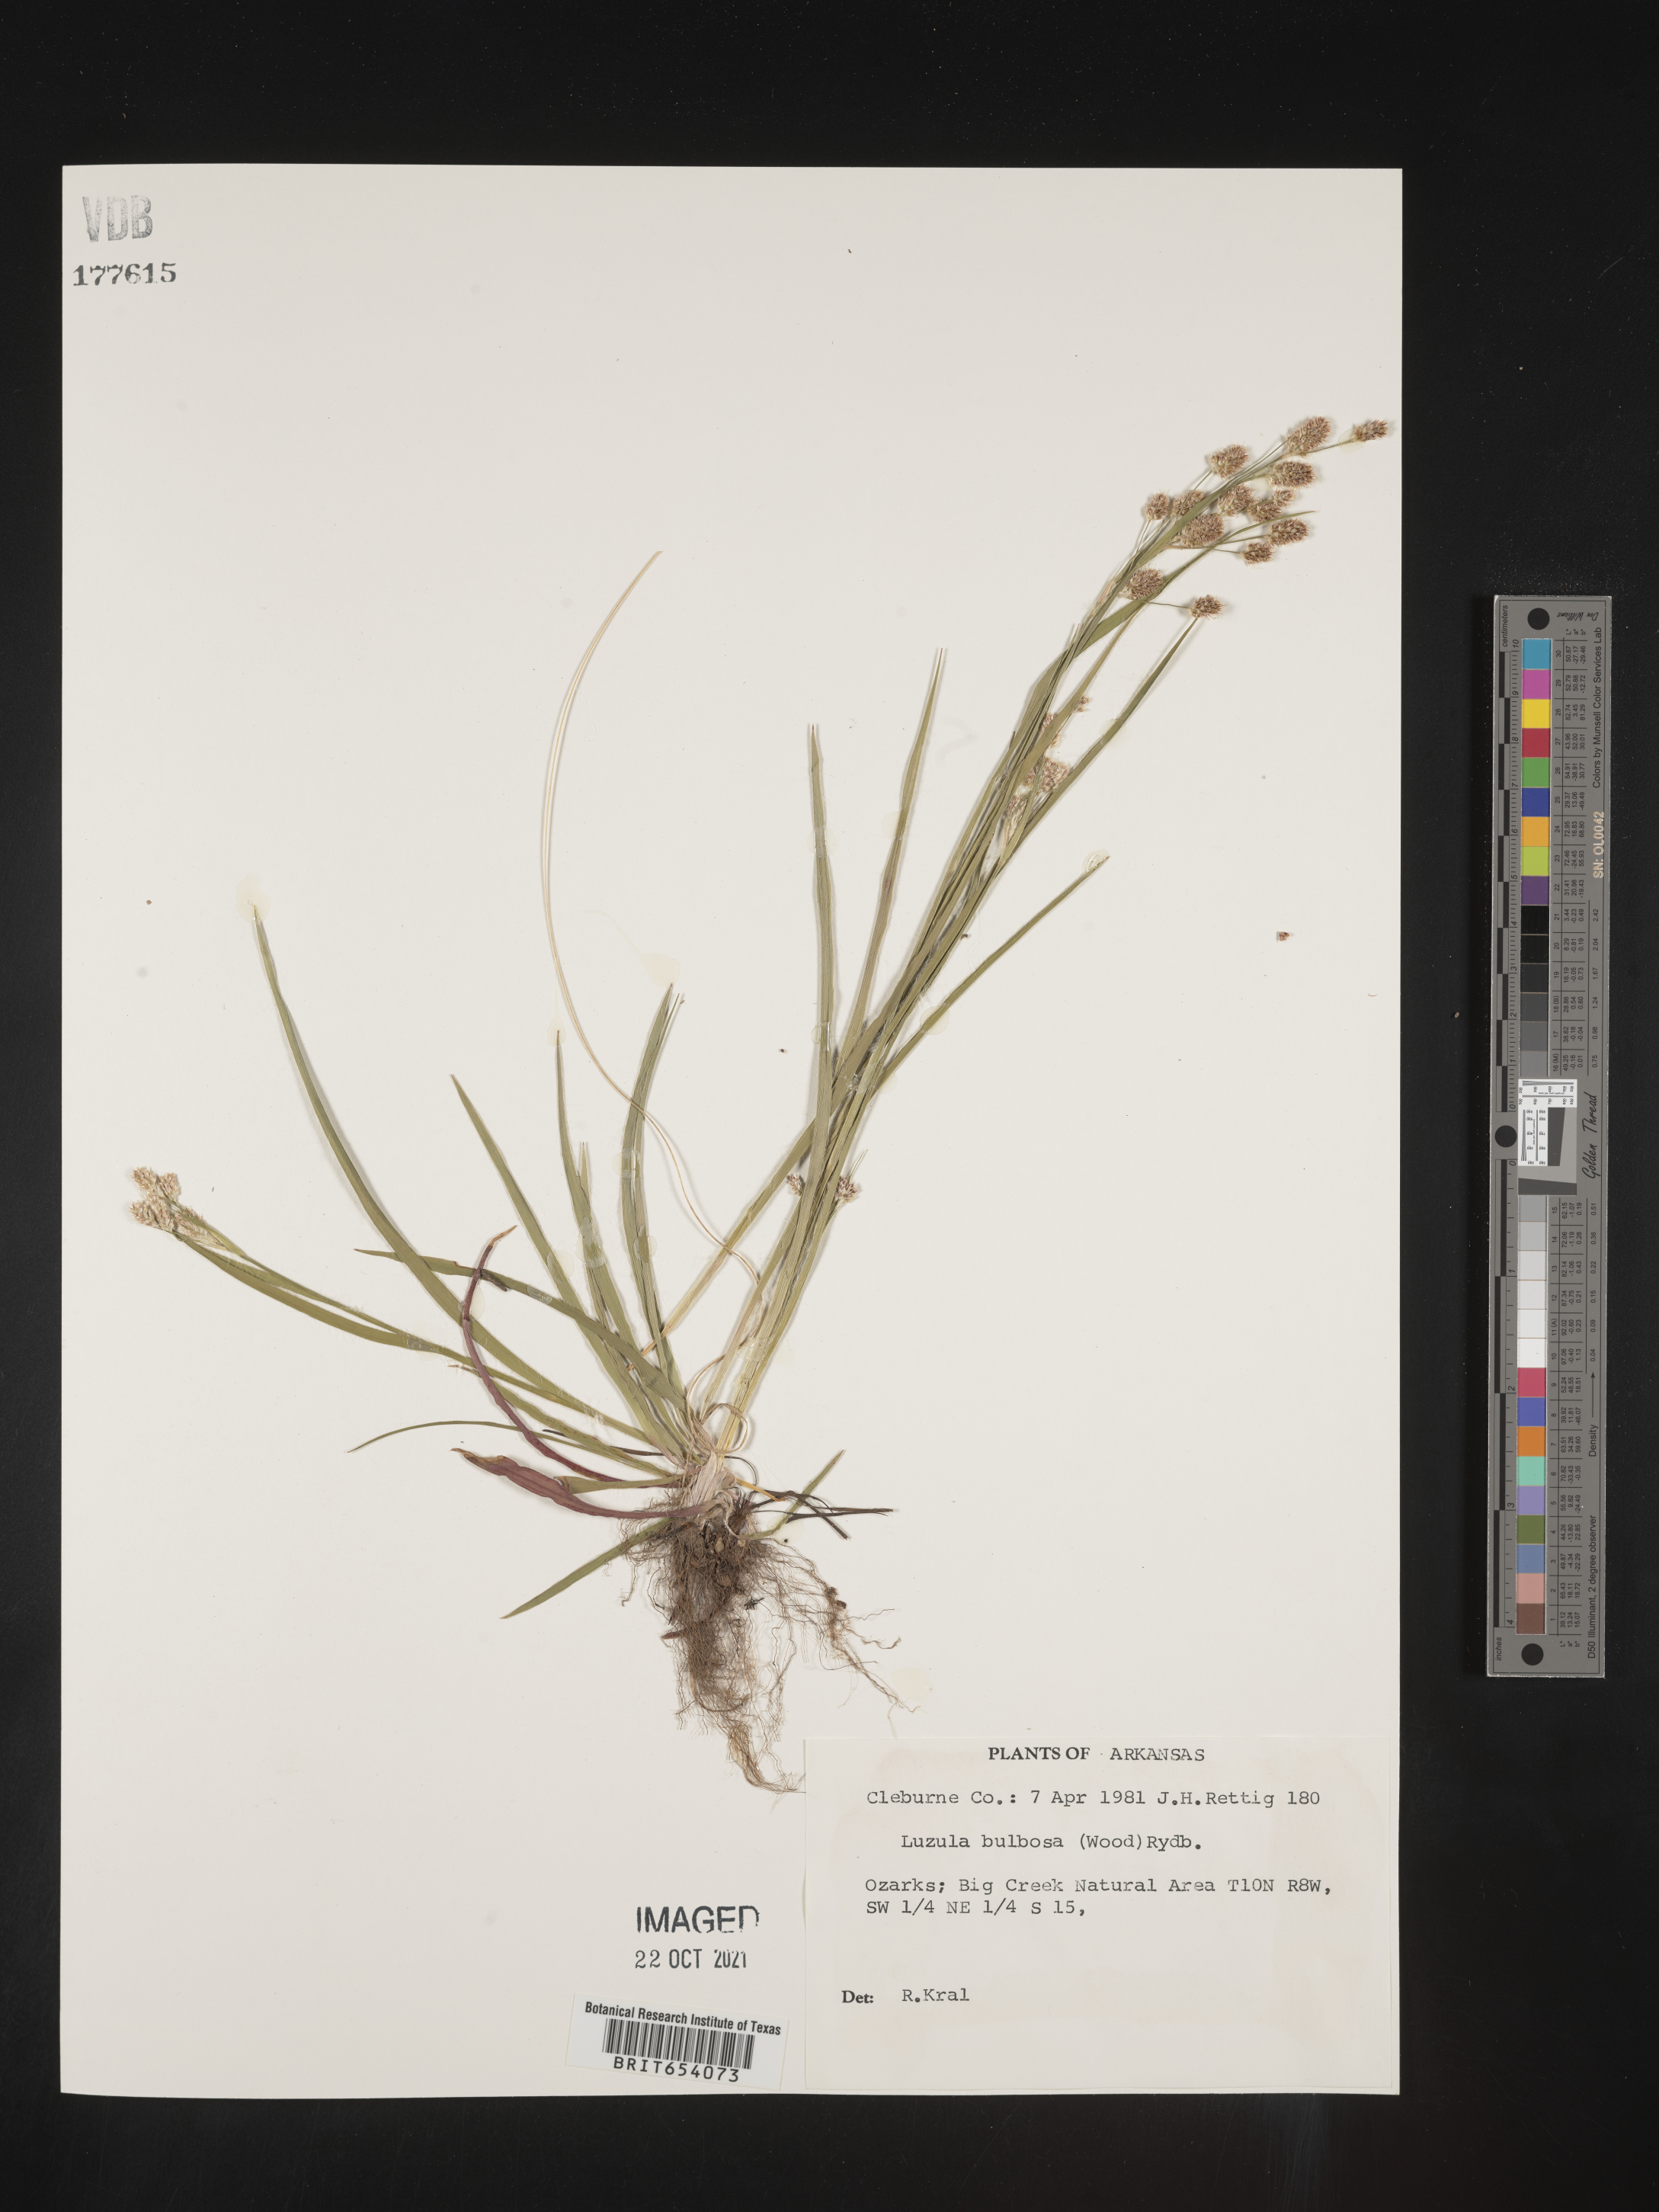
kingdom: Plantae
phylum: Tracheophyta
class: Liliopsida
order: Poales
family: Juncaceae
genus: Luzula
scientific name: Luzula bulbosa
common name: Bulbous woodrush
